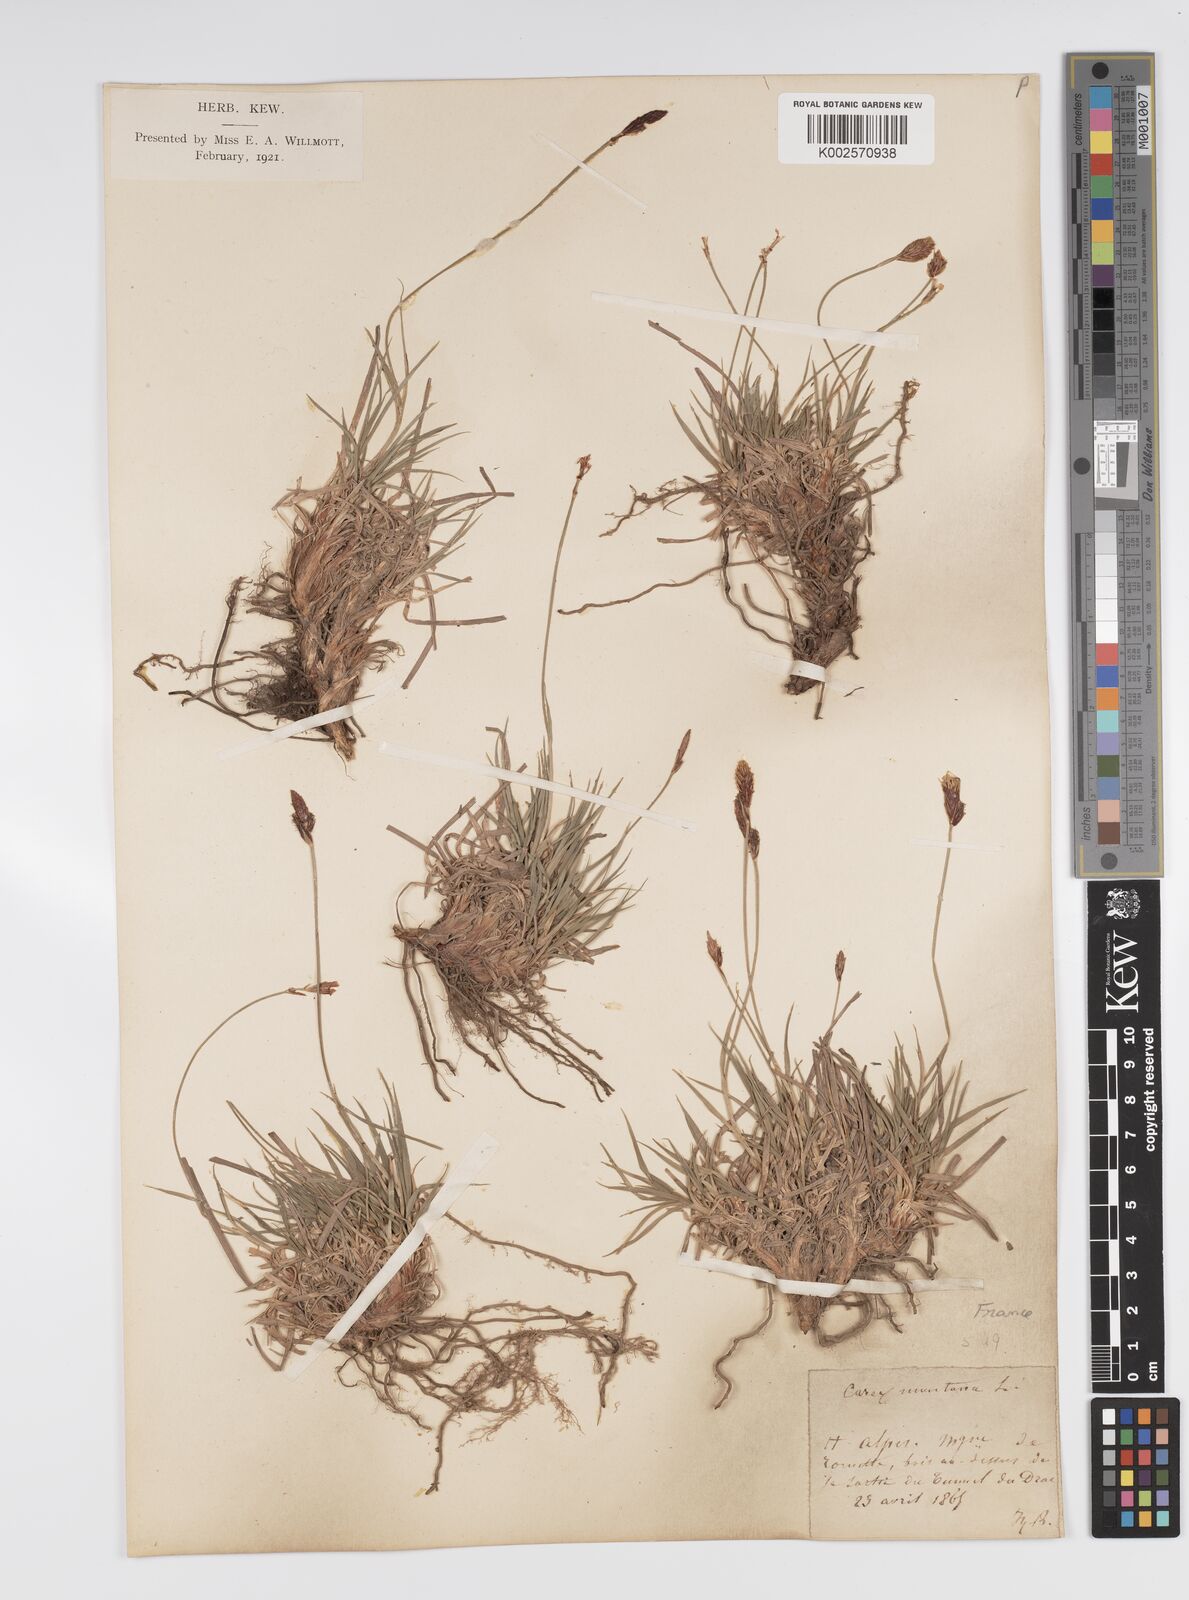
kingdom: Plantae
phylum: Tracheophyta
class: Liliopsida
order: Poales
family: Cyperaceae
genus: Carex
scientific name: Carex montana
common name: Soft-leaved sedge
